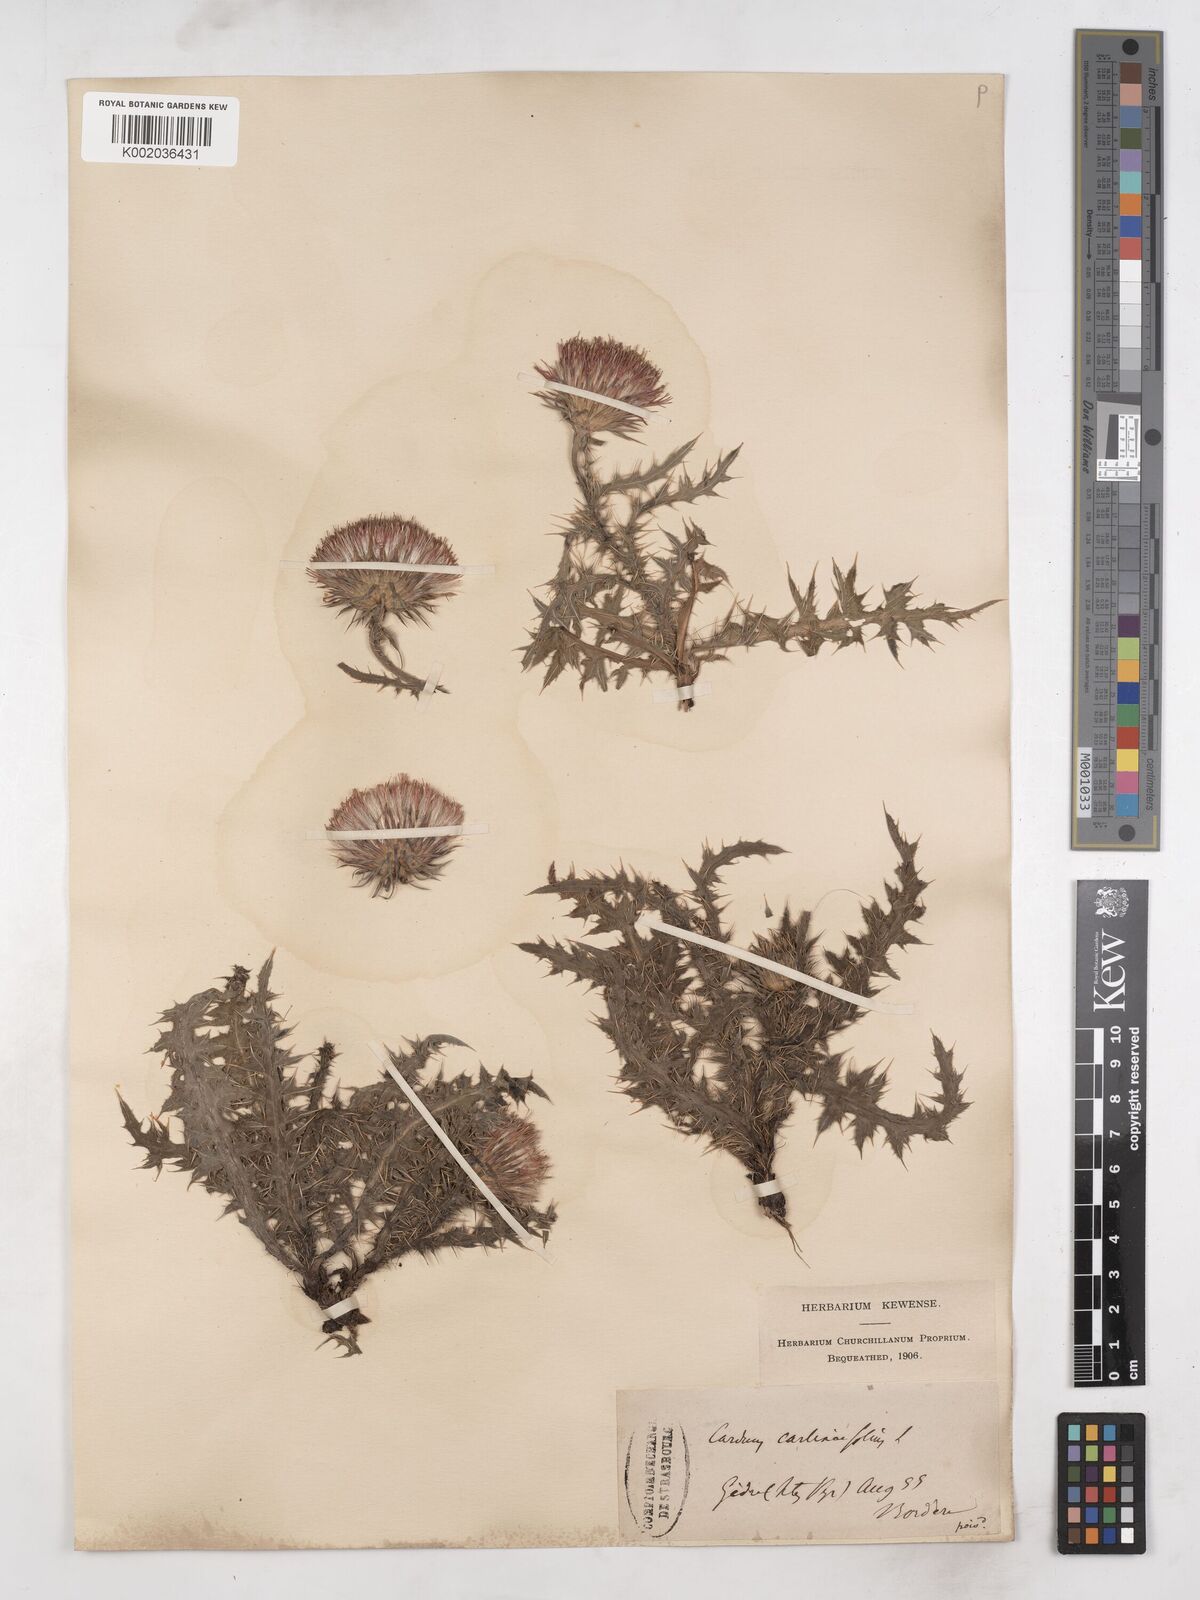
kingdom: Plantae
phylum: Tracheophyta
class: Magnoliopsida
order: Asterales
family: Asteraceae
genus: Carduus
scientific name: Carduus carlinifolius
